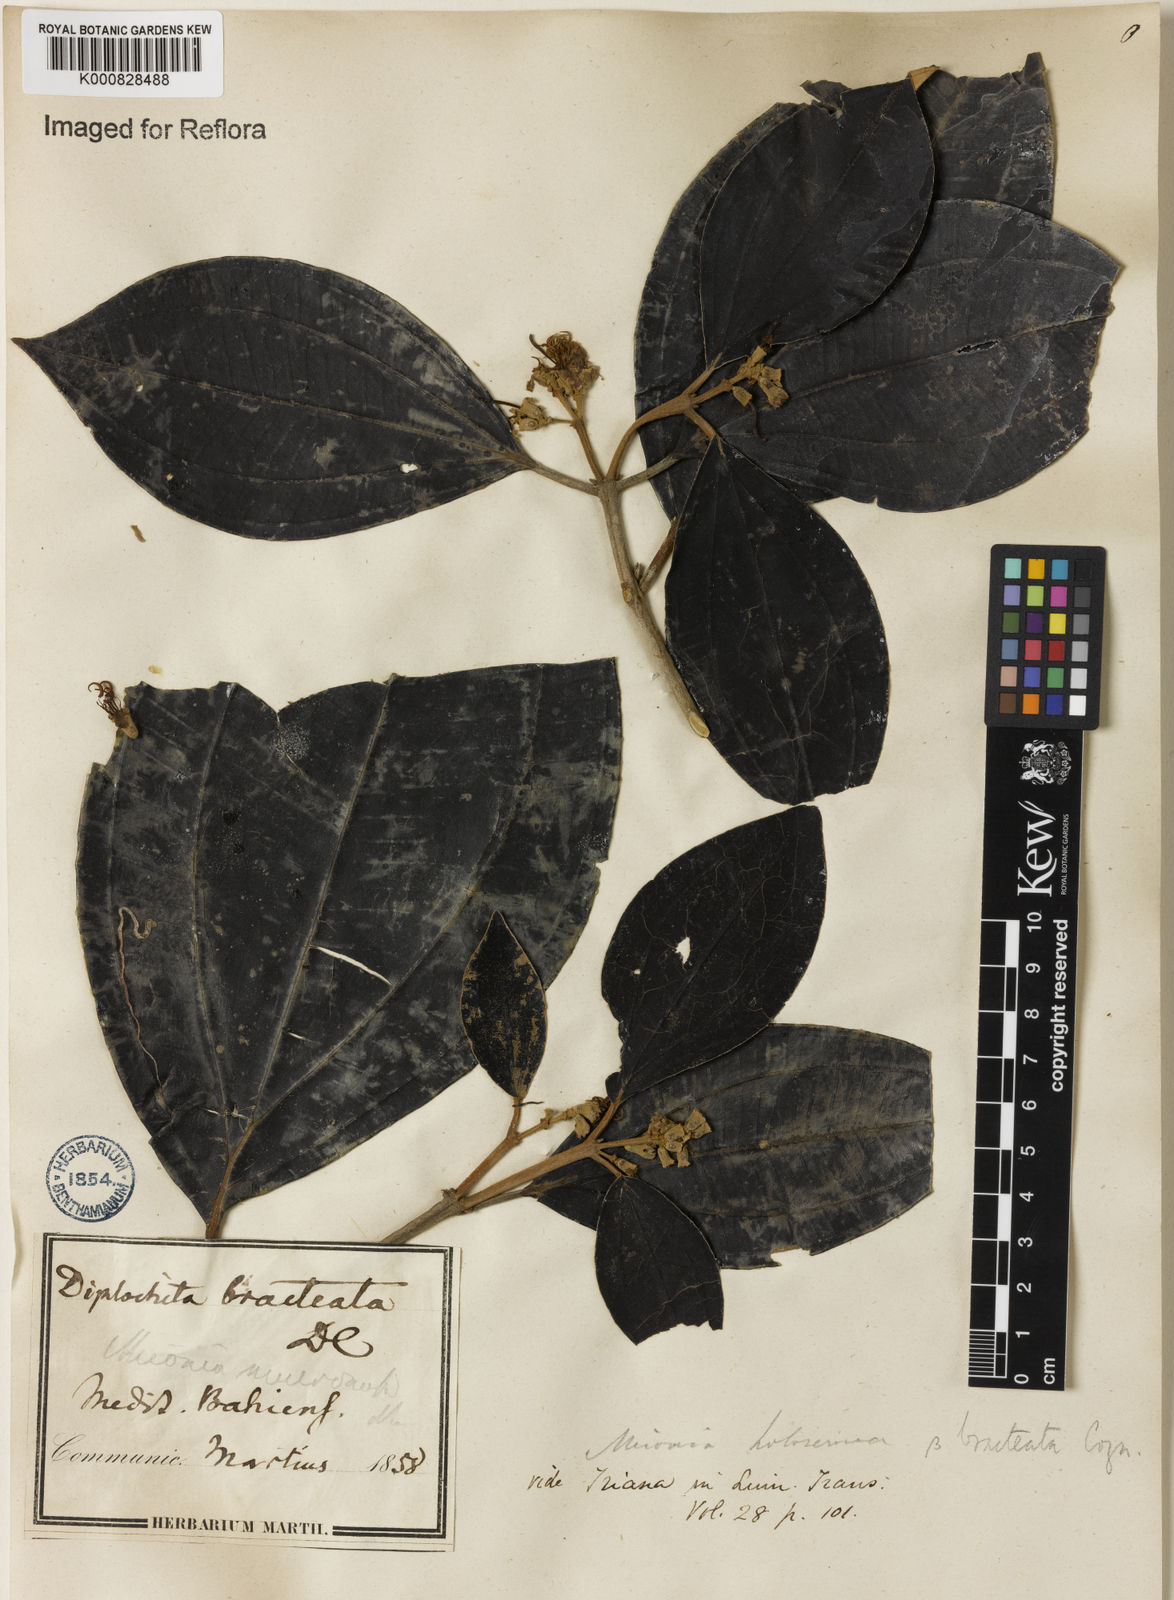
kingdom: Plantae
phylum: Tracheophyta
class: Magnoliopsida
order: Myrtales
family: Melastomataceae
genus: Miconia
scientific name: Miconia holosericea
